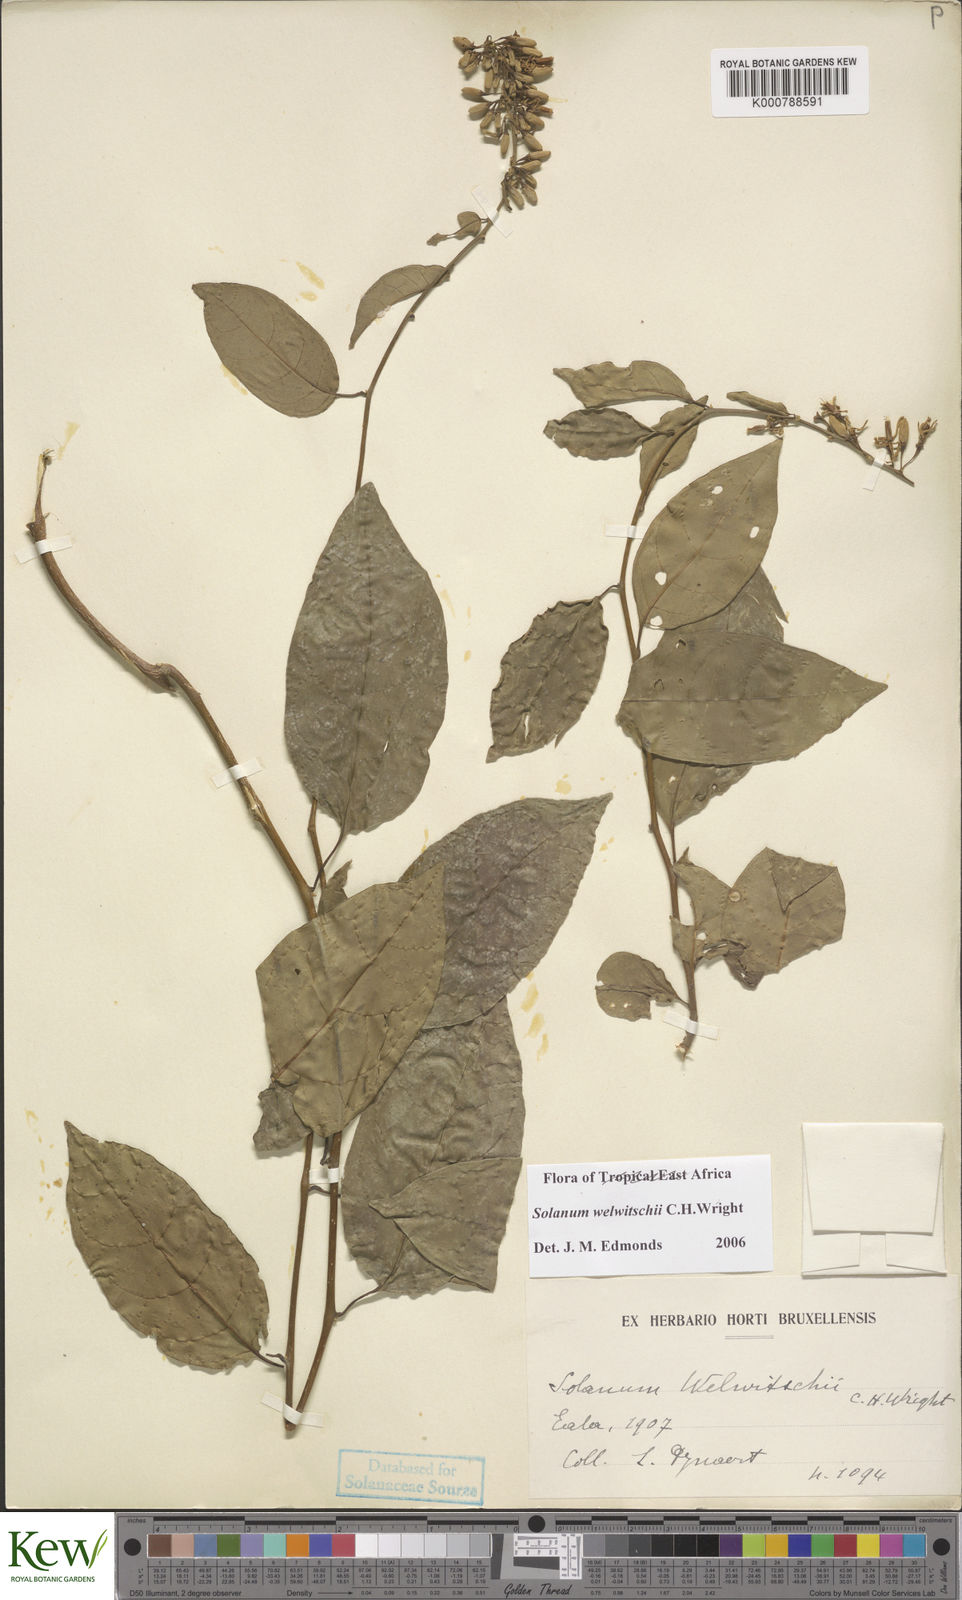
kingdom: Plantae
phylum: Tracheophyta
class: Magnoliopsida
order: Solanales
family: Solanaceae
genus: Solanum
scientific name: Solanum terminale
